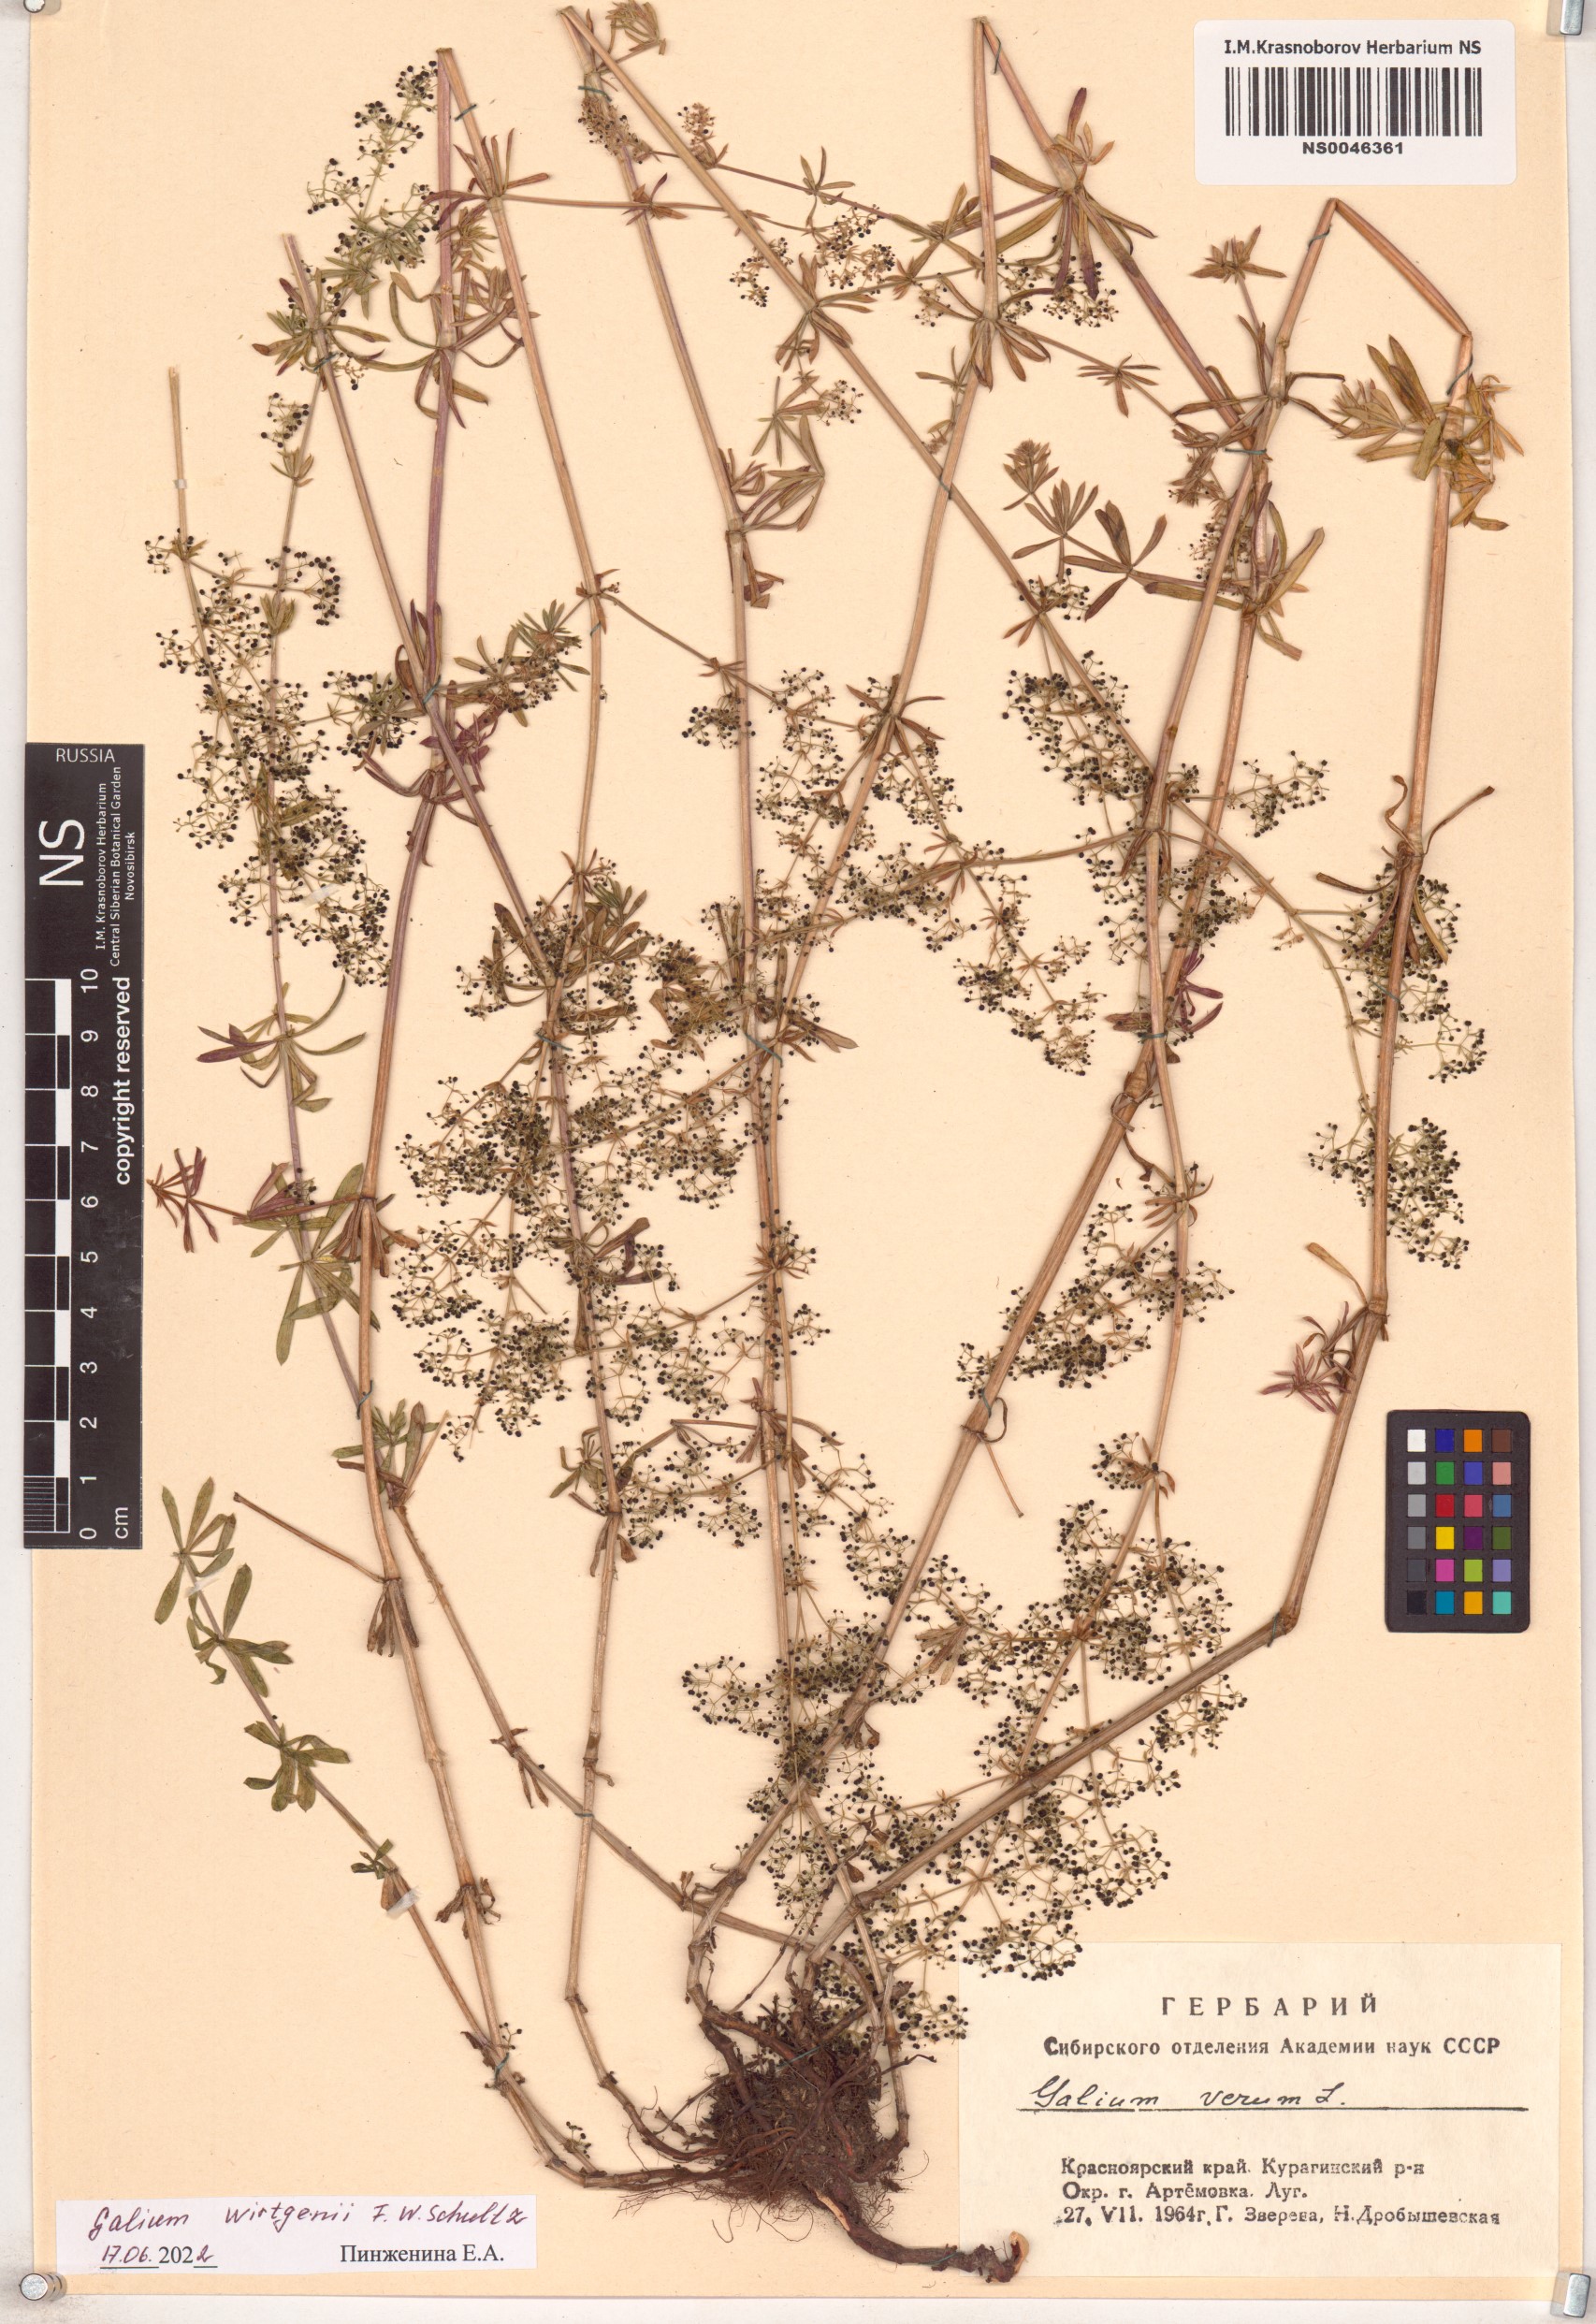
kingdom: Plantae
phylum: Tracheophyta
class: Magnoliopsida
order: Gentianales
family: Rubiaceae
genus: Galium
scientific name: Galium verum
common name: Lady's bedstraw
